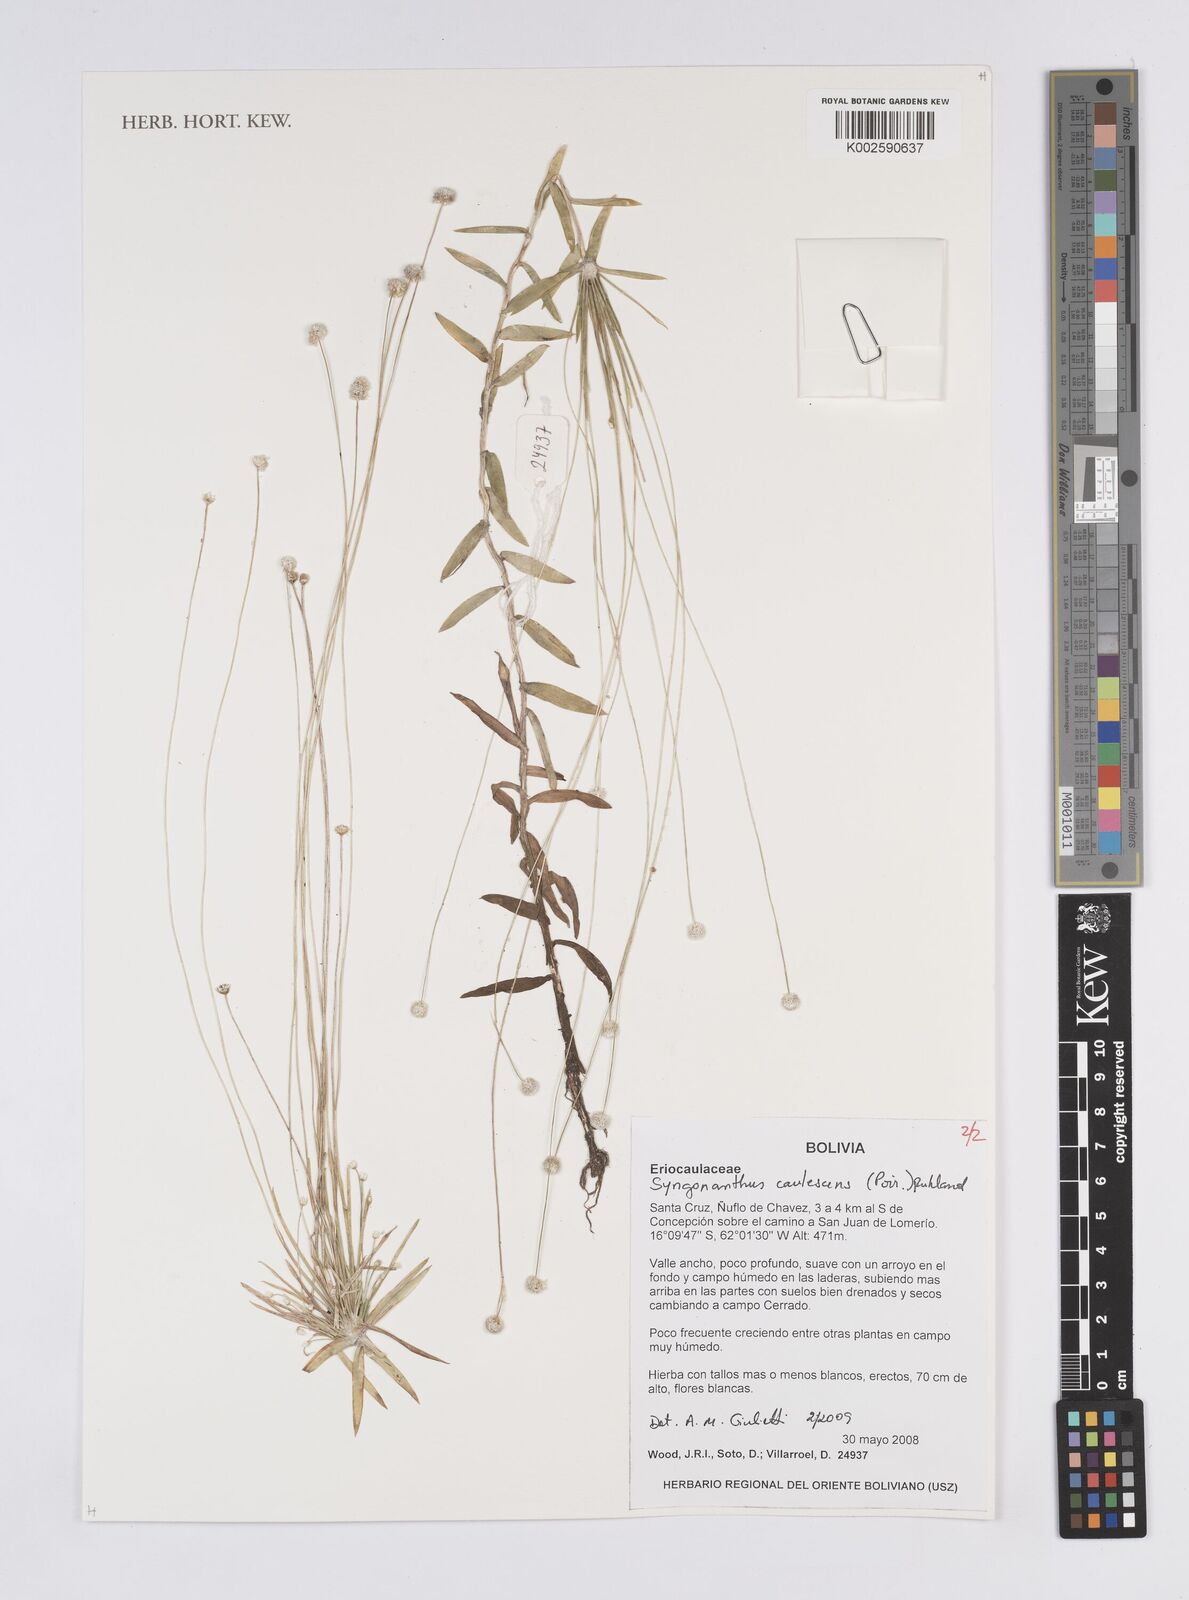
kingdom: Plantae
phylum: Tracheophyta
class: Liliopsida
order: Poales
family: Eriocaulaceae
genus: Syngonanthus
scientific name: Syngonanthus caulescens
